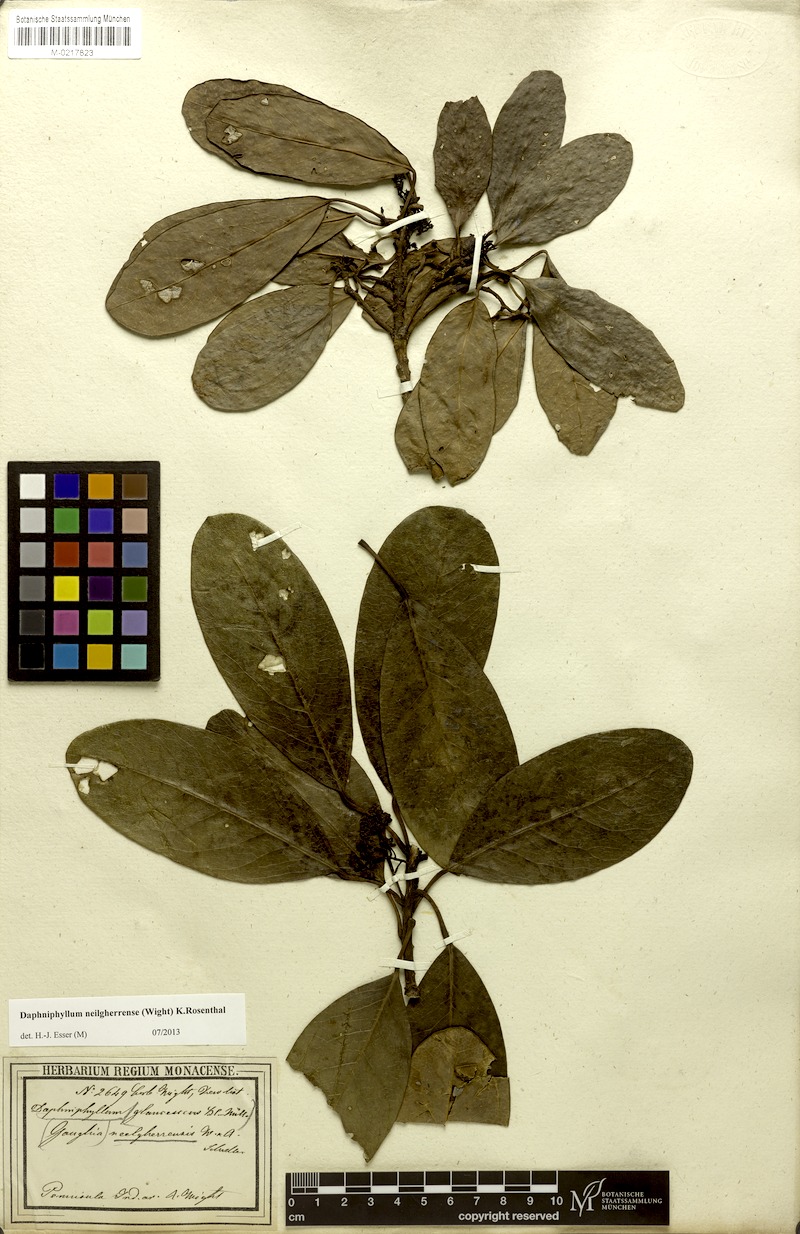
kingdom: Plantae
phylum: Tracheophyta
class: Magnoliopsida
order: Saxifragales
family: Daphniphyllaceae
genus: Daphniphyllum
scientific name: Daphniphyllum neilgherrense
